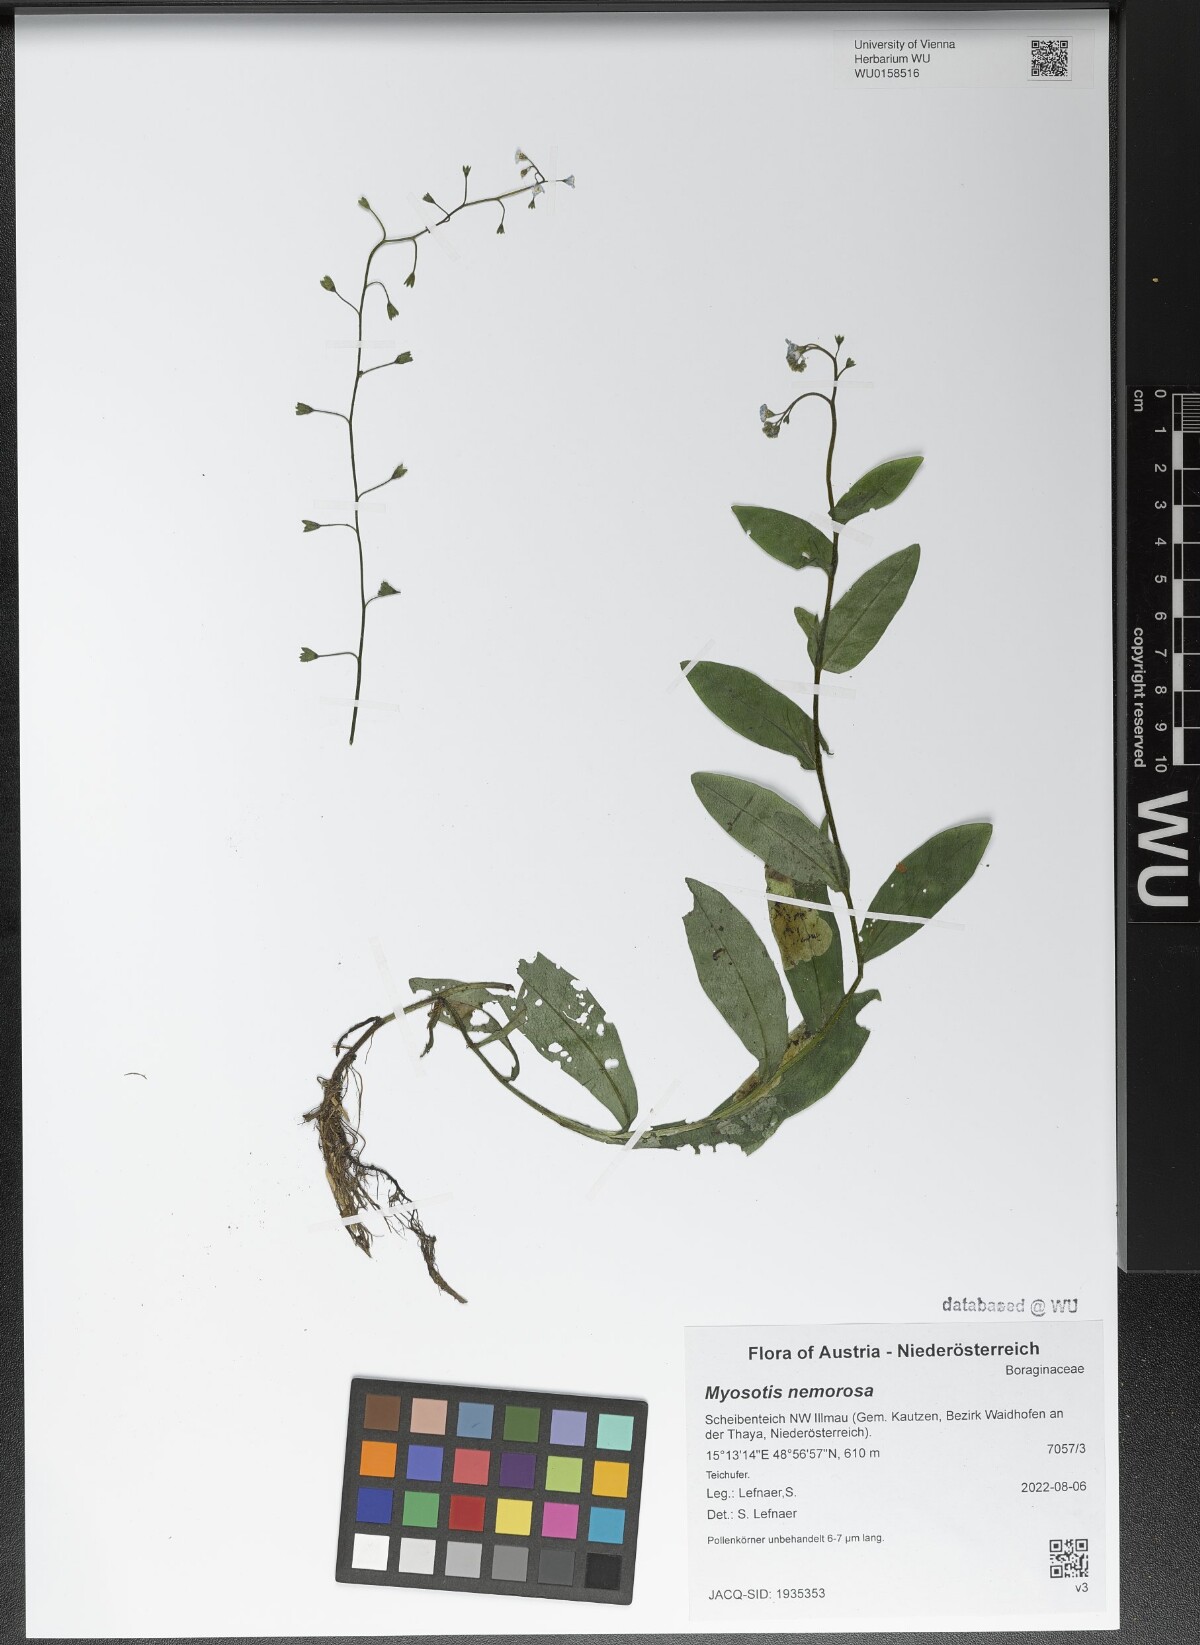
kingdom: Plantae
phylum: Tracheophyta
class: Magnoliopsida
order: Boraginales
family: Boraginaceae
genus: Myosotis
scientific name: Myosotis nemorosa
